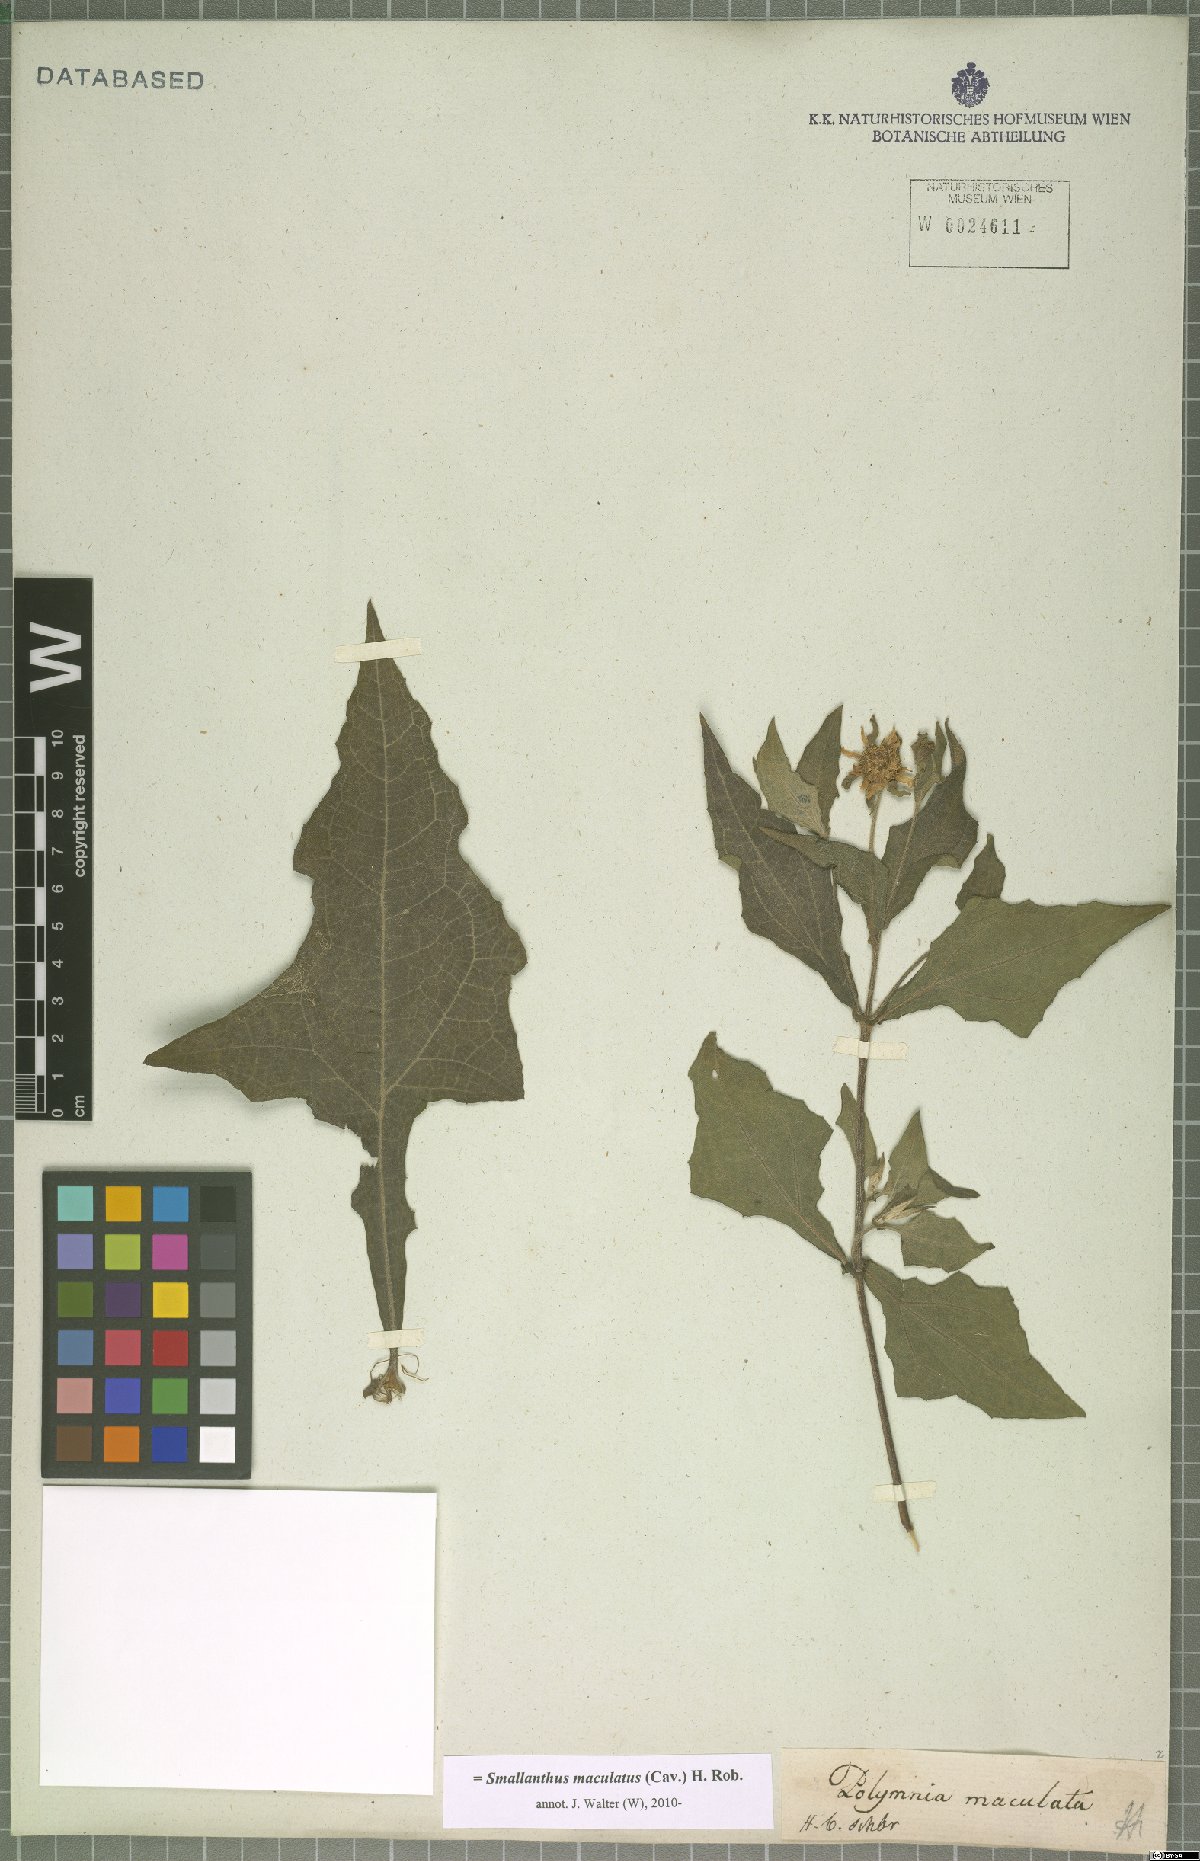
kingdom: Plantae
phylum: Tracheophyta
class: Magnoliopsida
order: Asterales
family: Asteraceae
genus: Smallanthus
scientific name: Smallanthus maculatus
